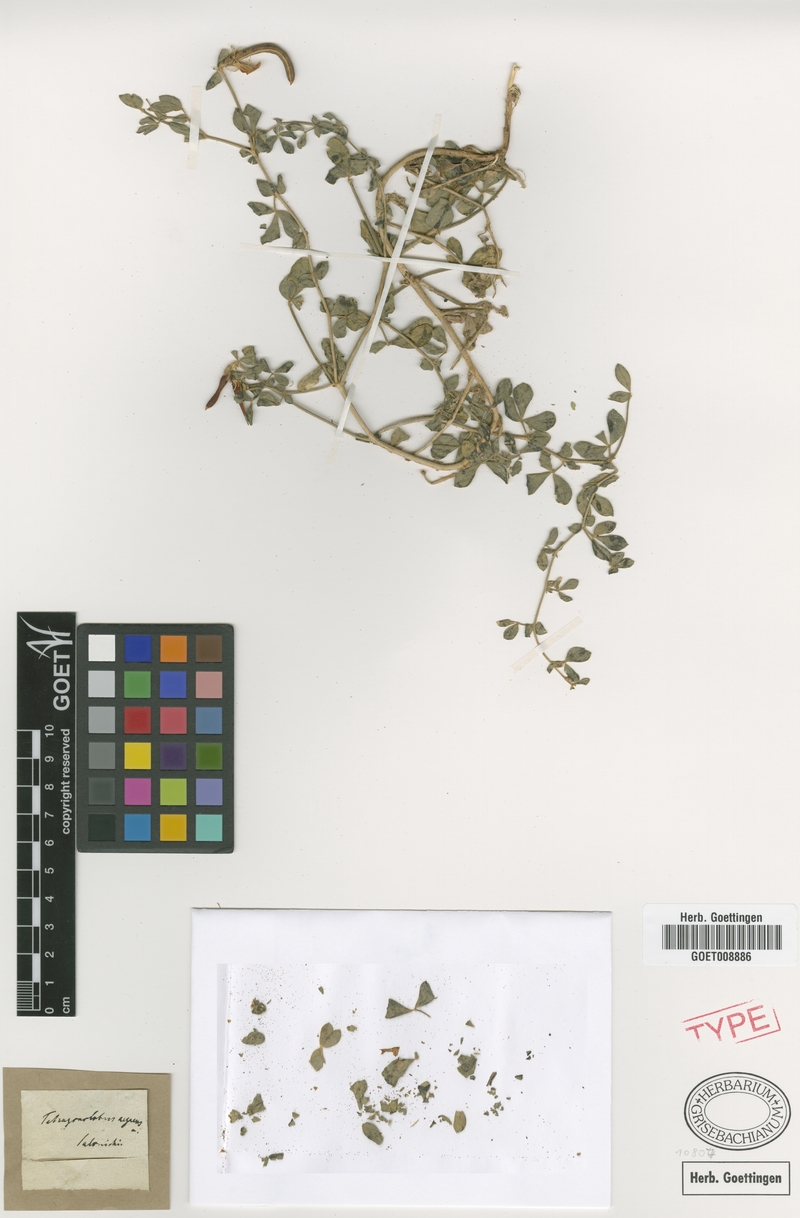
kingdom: Plantae
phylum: Tracheophyta
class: Magnoliopsida
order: Fabales
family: Fabaceae
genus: Lotus
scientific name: Lotus aegaeus
